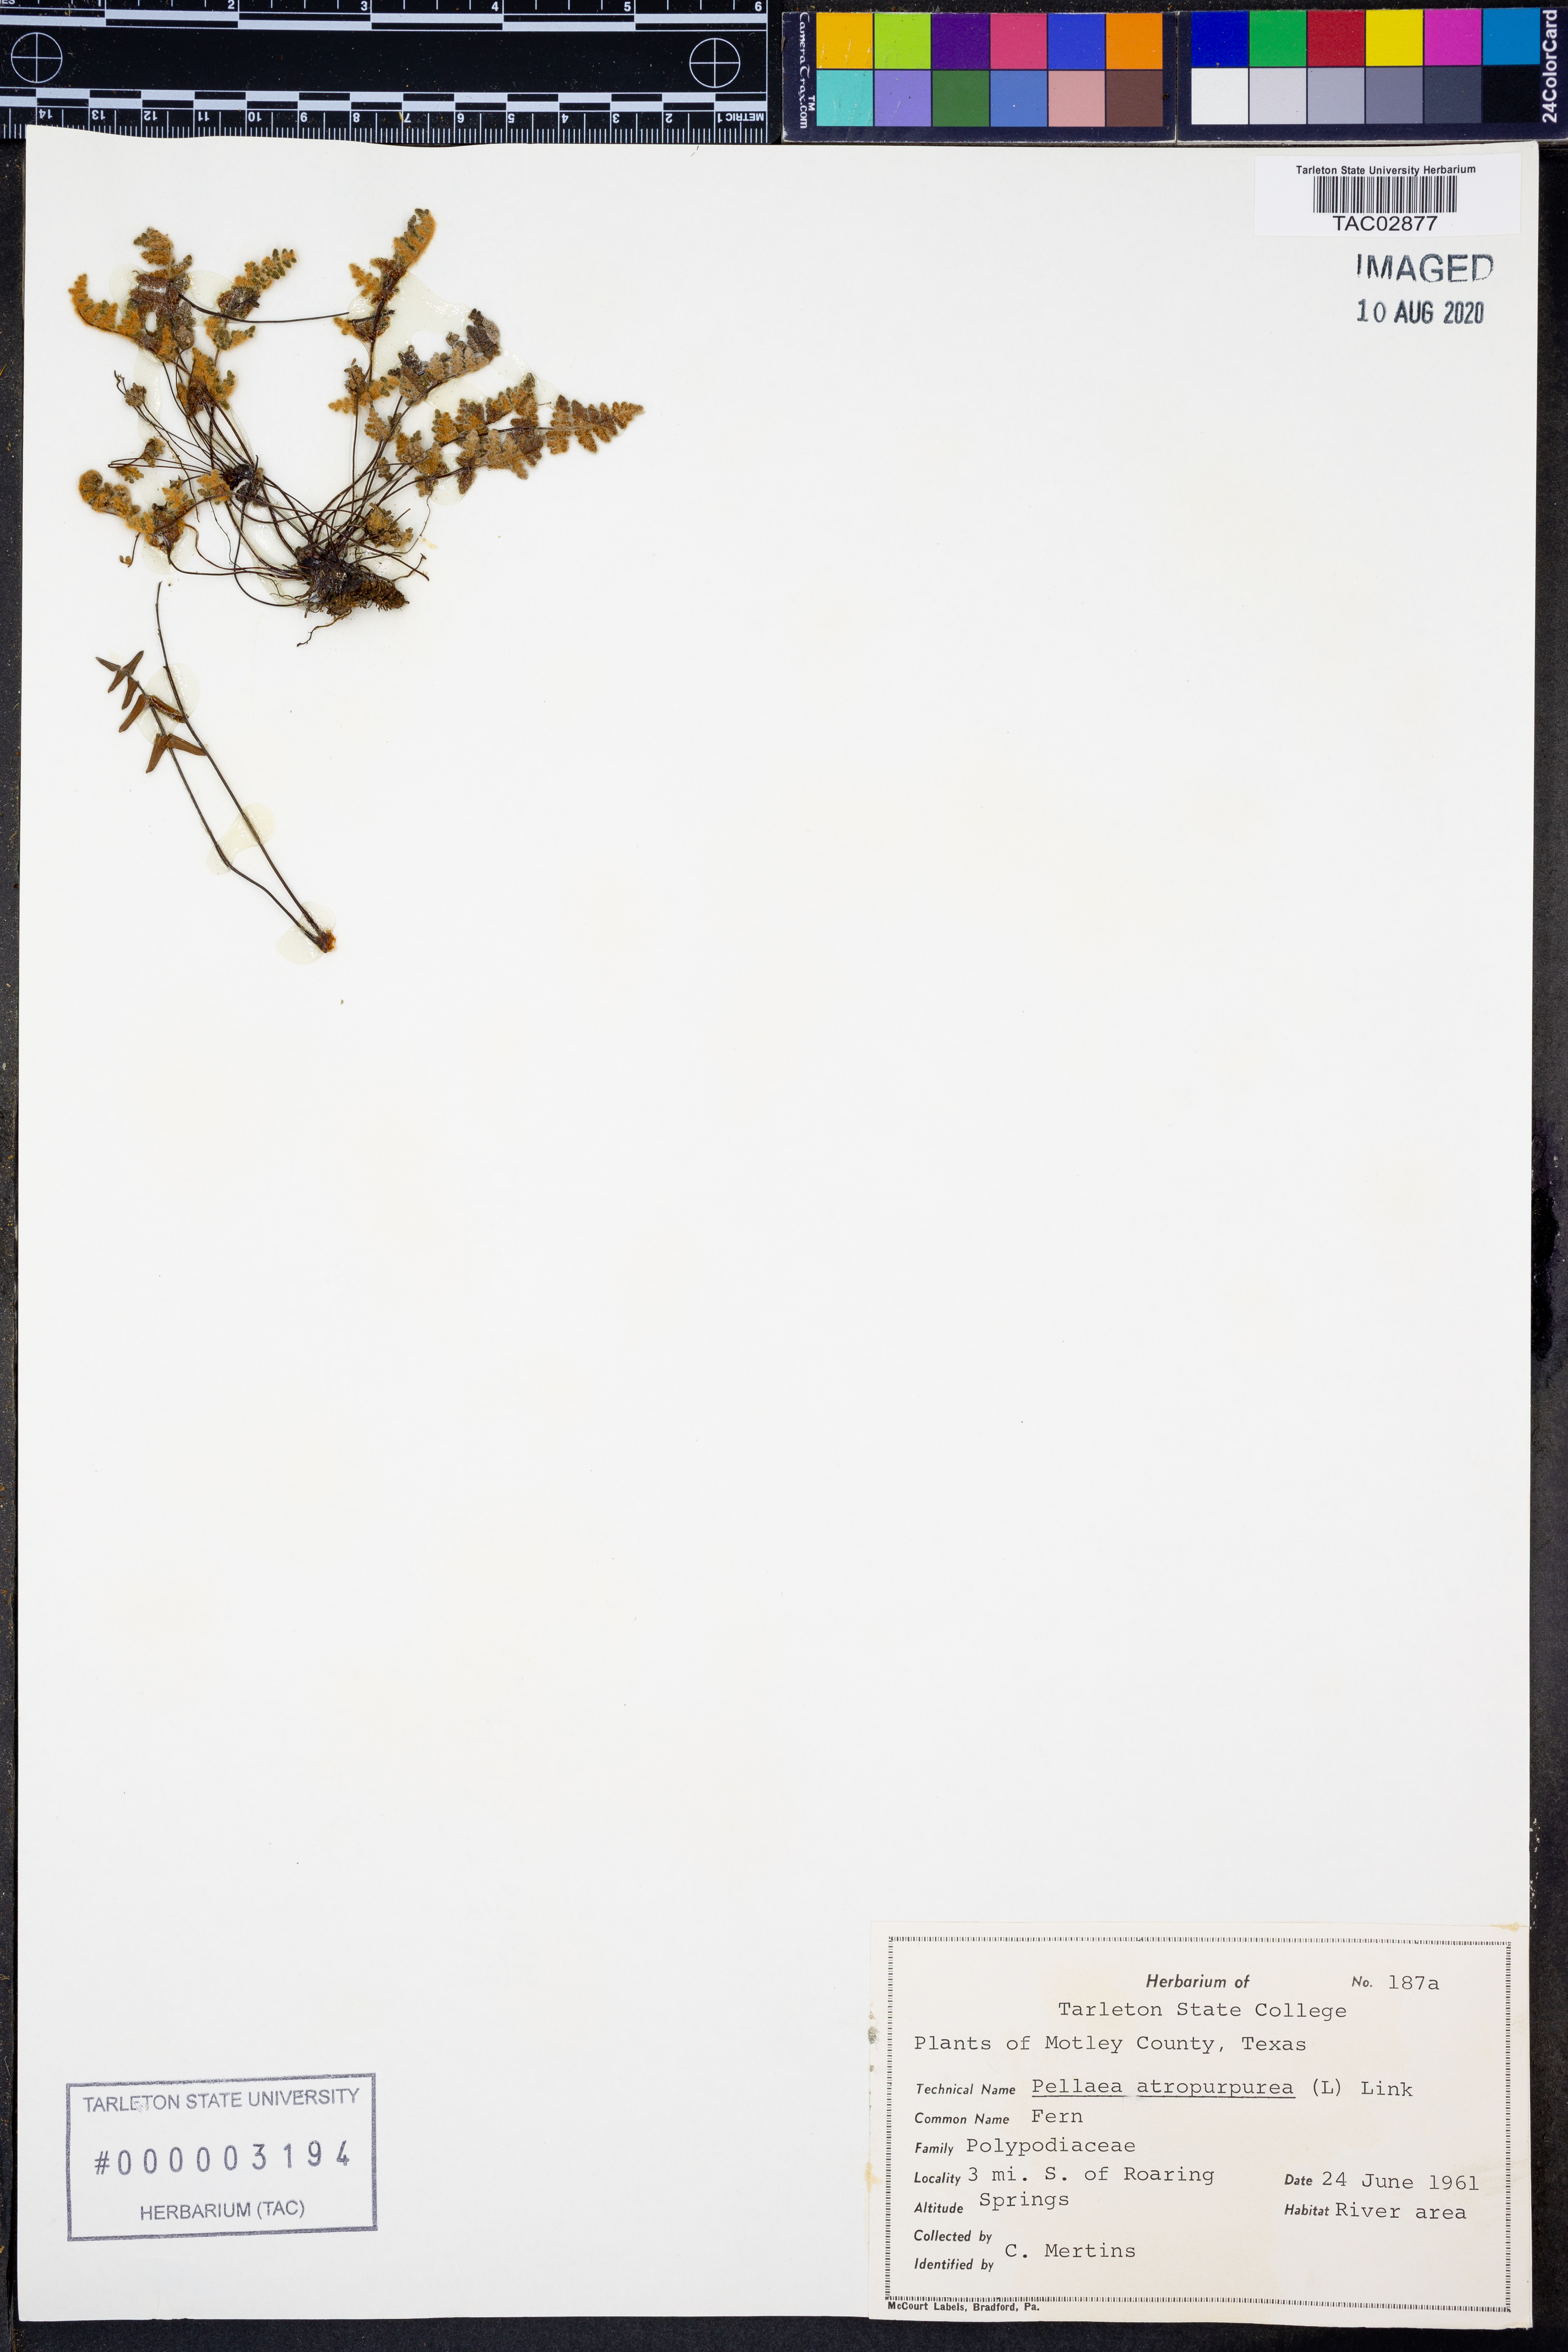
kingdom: Plantae
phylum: Tracheophyta
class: Polypodiopsida
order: Polypodiales
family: Pteridaceae
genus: Pellaea
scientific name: Pellaea atropurpurea
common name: Hairy cliffbrake
